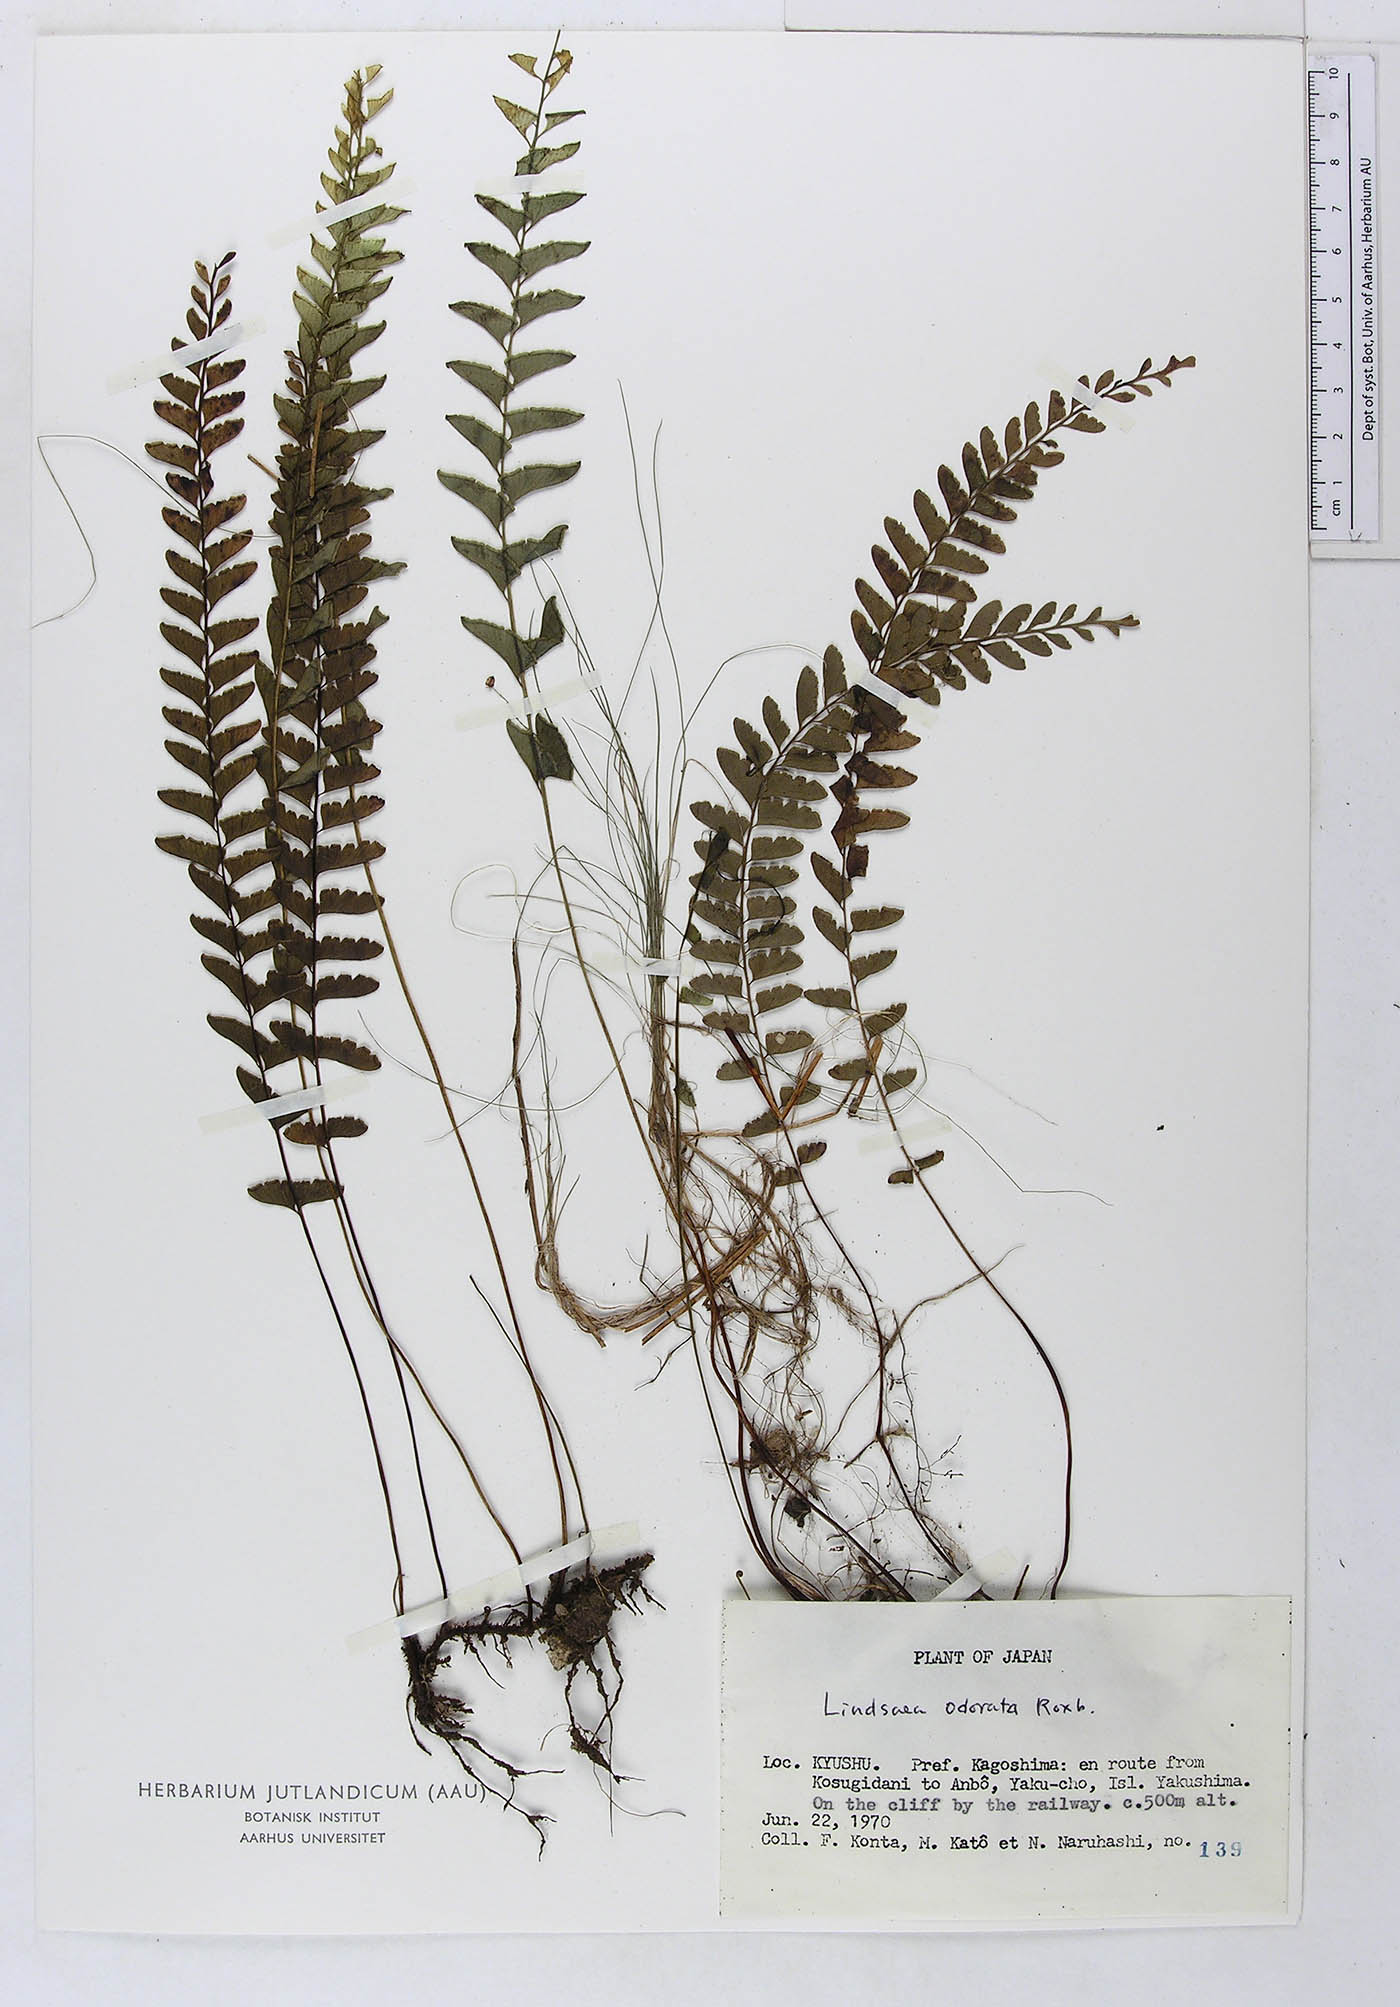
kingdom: Plantae
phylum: Tracheophyta
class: Polypodiopsida
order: Polypodiales
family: Lindsaeaceae
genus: Osmolindsaea
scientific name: Osmolindsaea odorata
